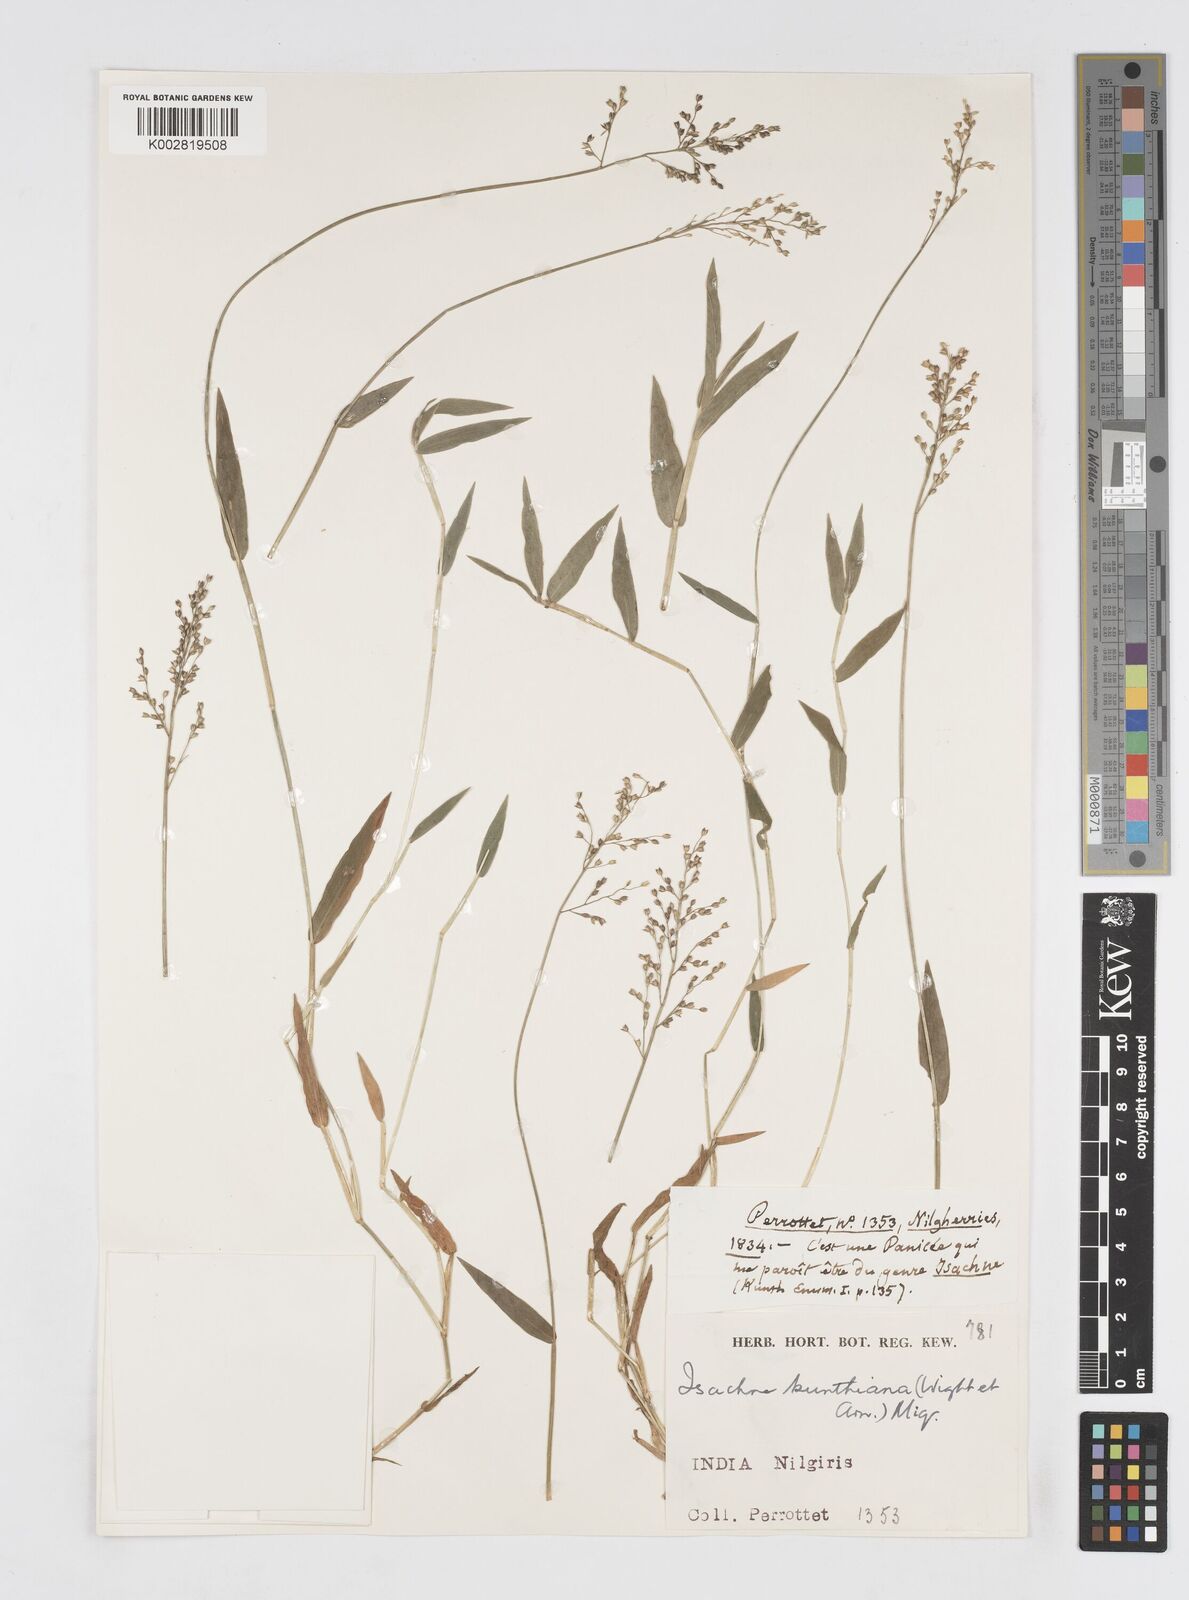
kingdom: Plantae
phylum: Tracheophyta
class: Liliopsida
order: Poales
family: Poaceae
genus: Isachne
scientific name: Isachne kunthiana
